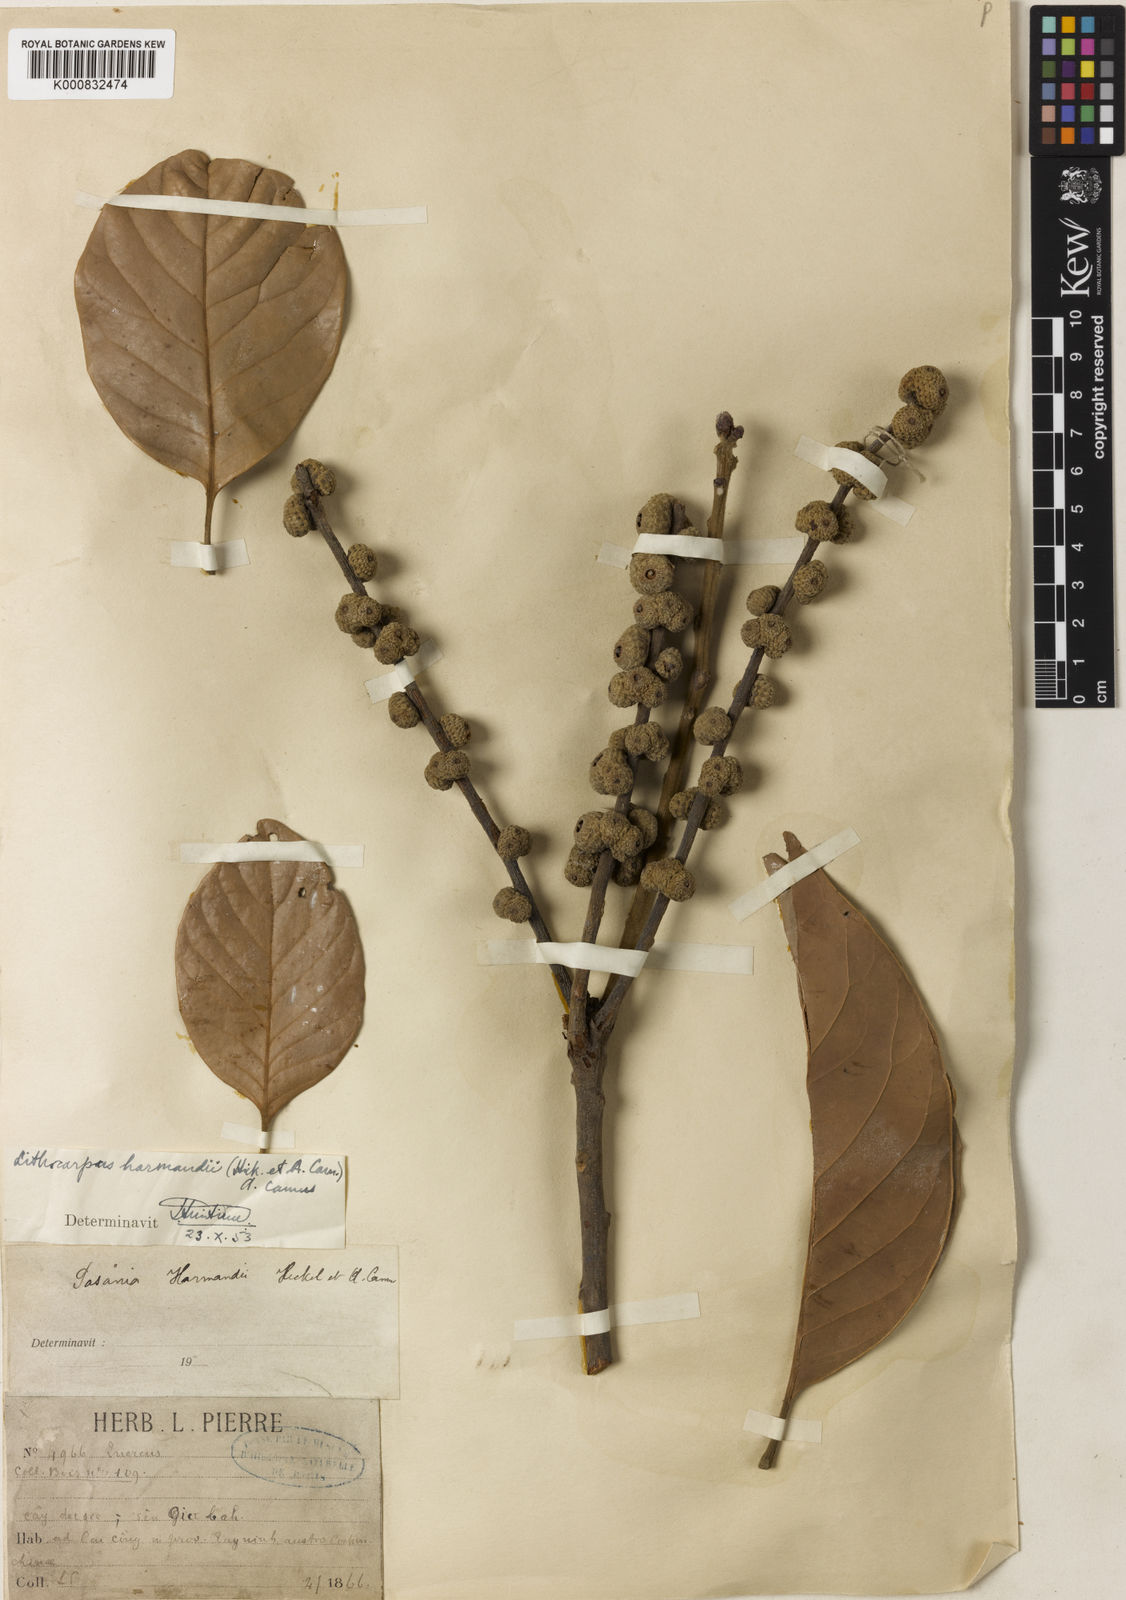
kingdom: Plantae
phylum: Tracheophyta
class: Magnoliopsida
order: Fagales
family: Fagaceae
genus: Lithocarpus
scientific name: Lithocarpus harmandii
